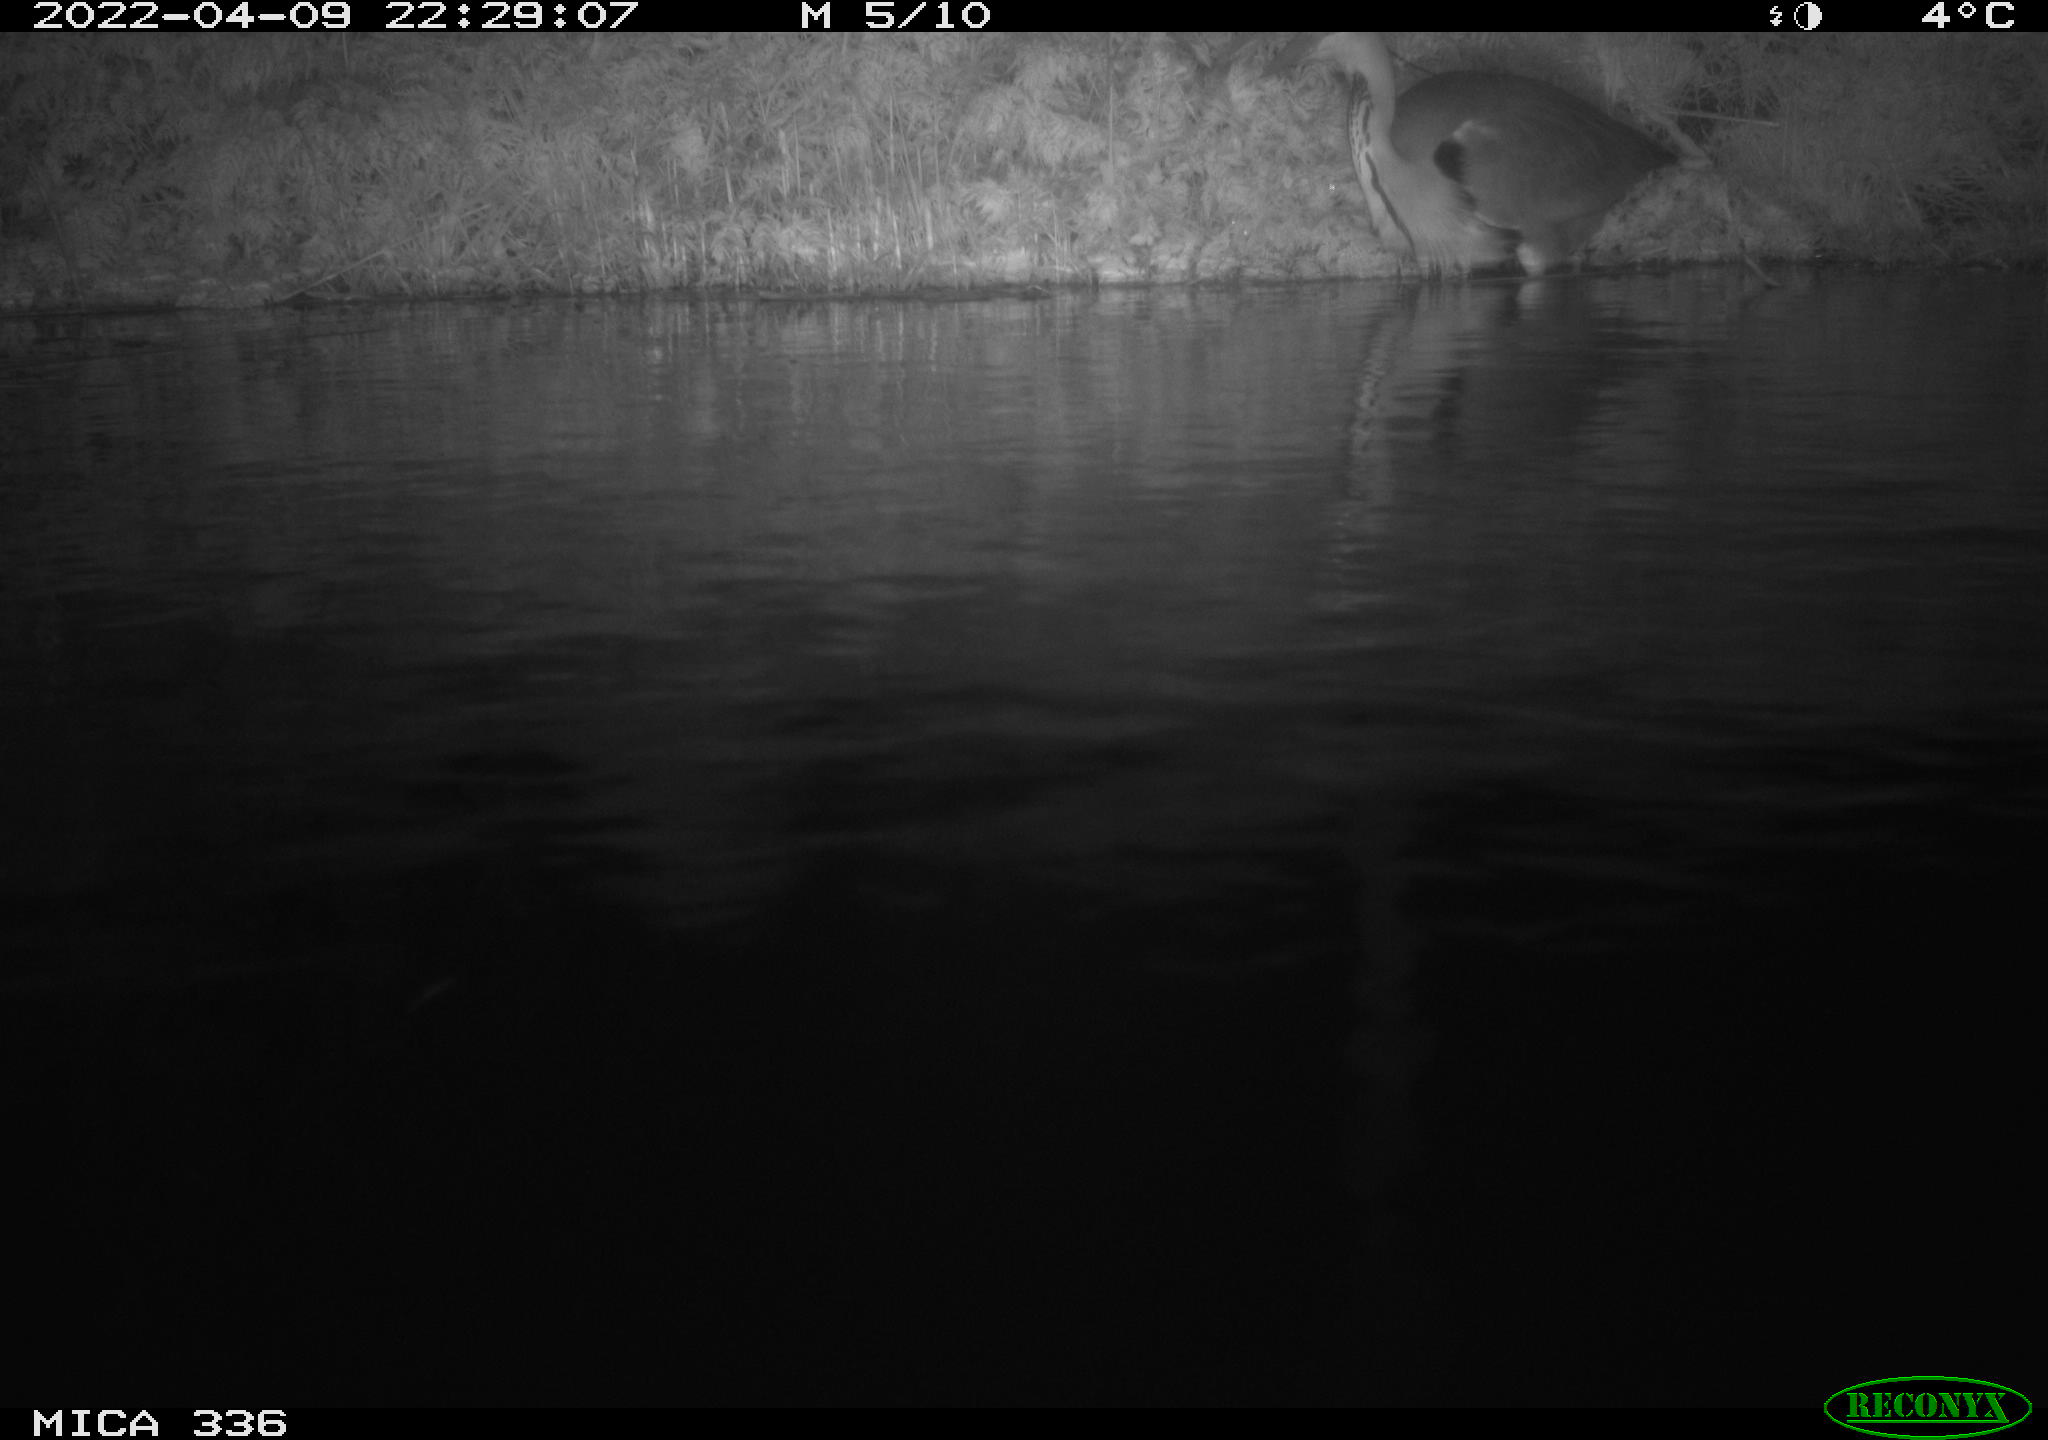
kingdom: Animalia
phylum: Chordata
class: Aves
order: Pelecaniformes
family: Ardeidae
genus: Ardea
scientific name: Ardea cinerea
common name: Grey heron
